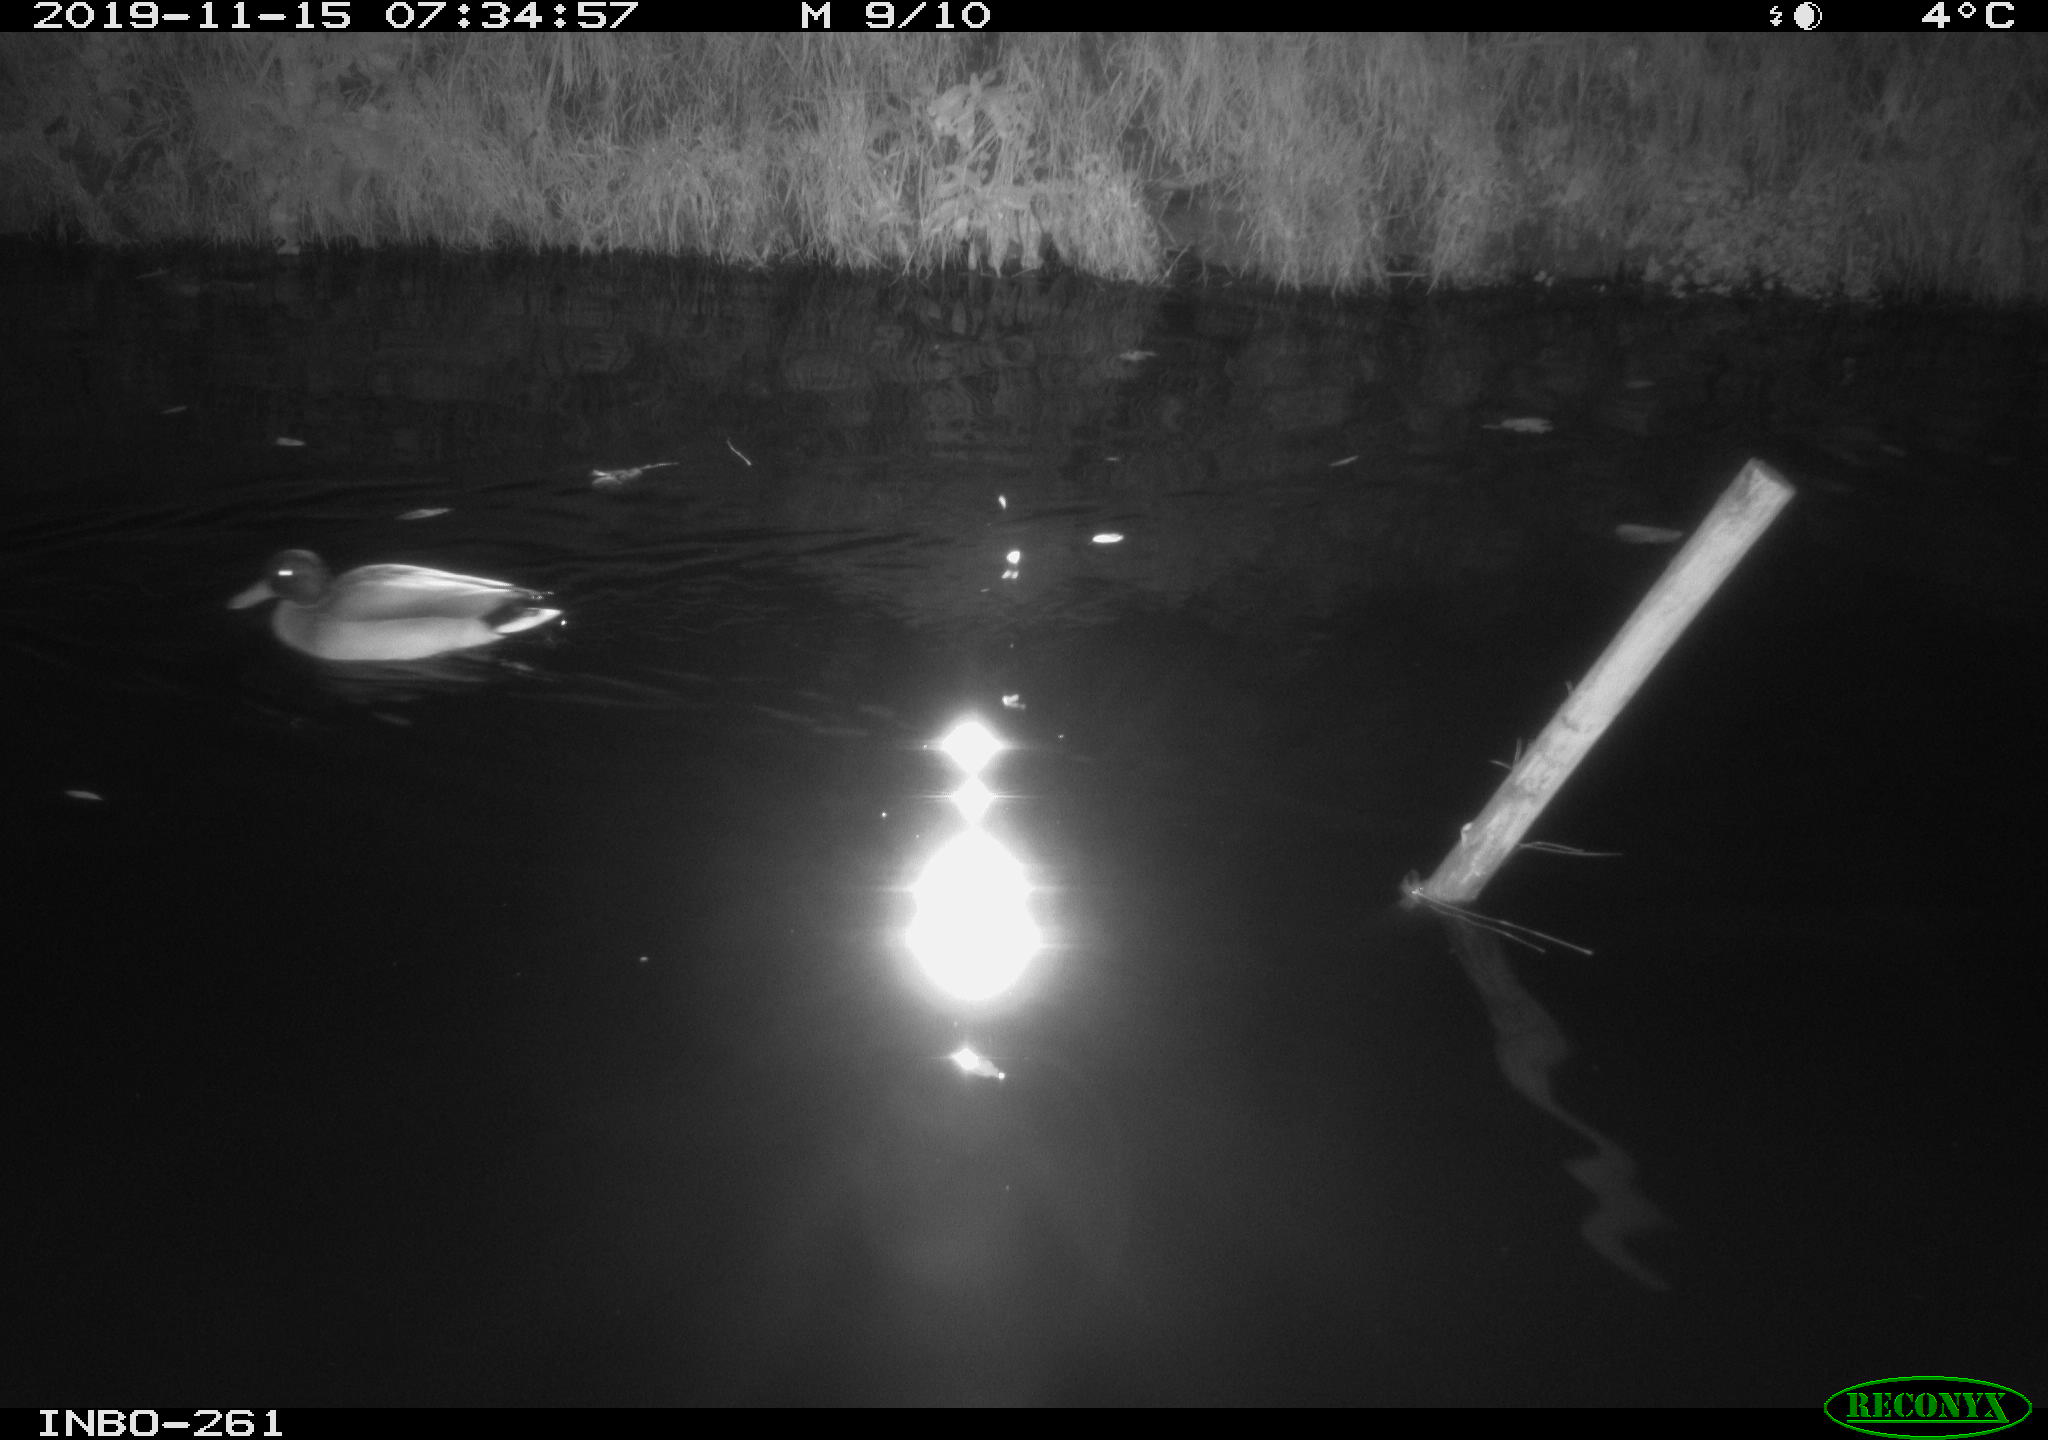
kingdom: Animalia
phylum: Chordata
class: Aves
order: Anseriformes
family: Anatidae
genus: Anas
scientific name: Anas platyrhynchos
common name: Mallard
